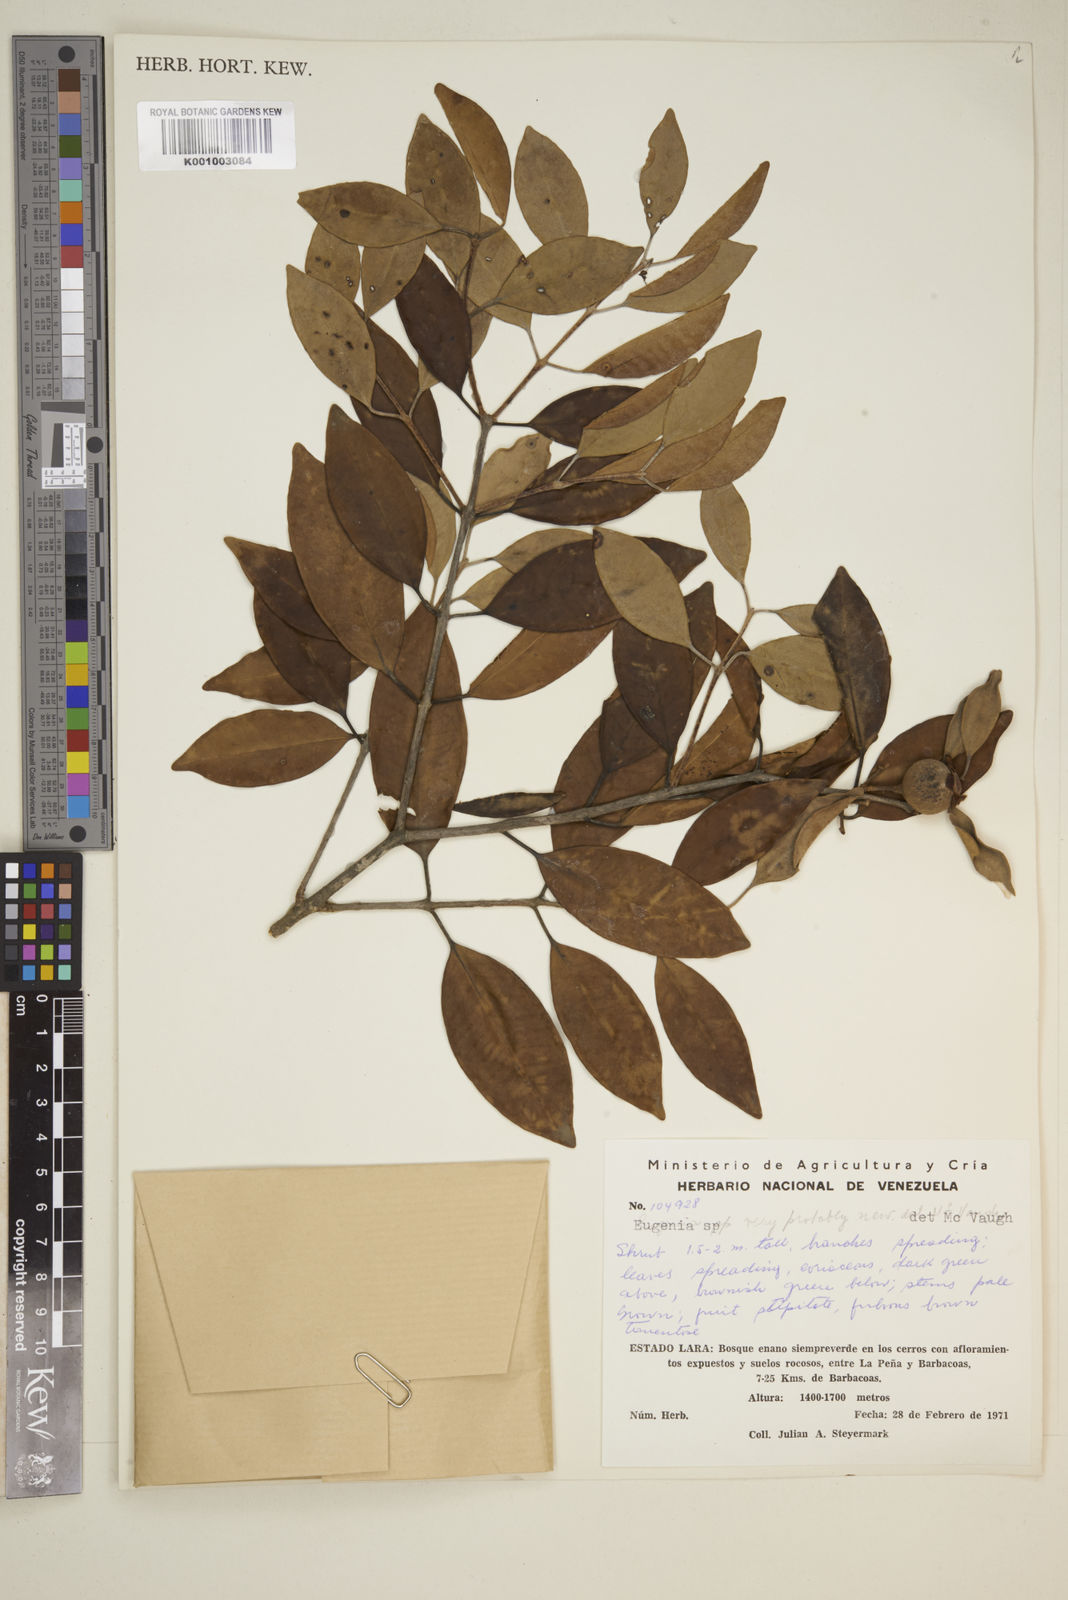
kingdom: Plantae
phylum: Tracheophyta
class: Magnoliopsida
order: Myrtales
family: Myrtaceae
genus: Eugenia
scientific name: Eugenia
